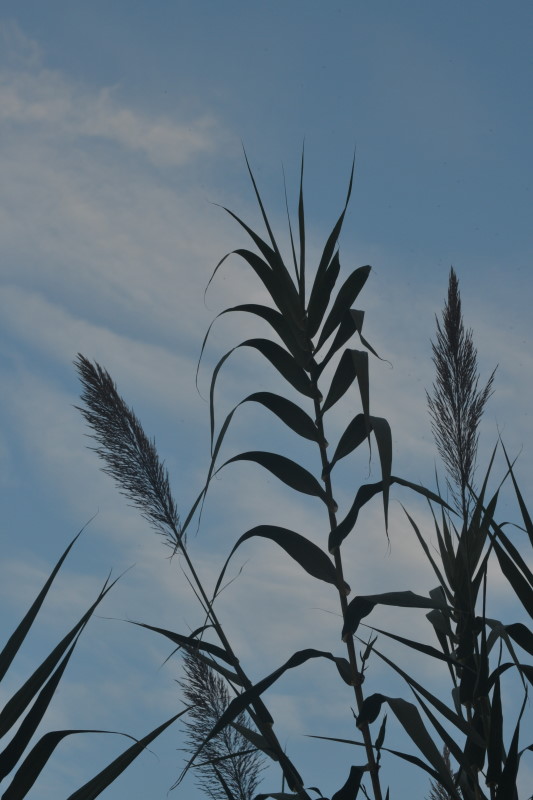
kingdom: Plantae
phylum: Tracheophyta
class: Liliopsida
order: Poales
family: Poaceae
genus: Arundo
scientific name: Arundo donax
